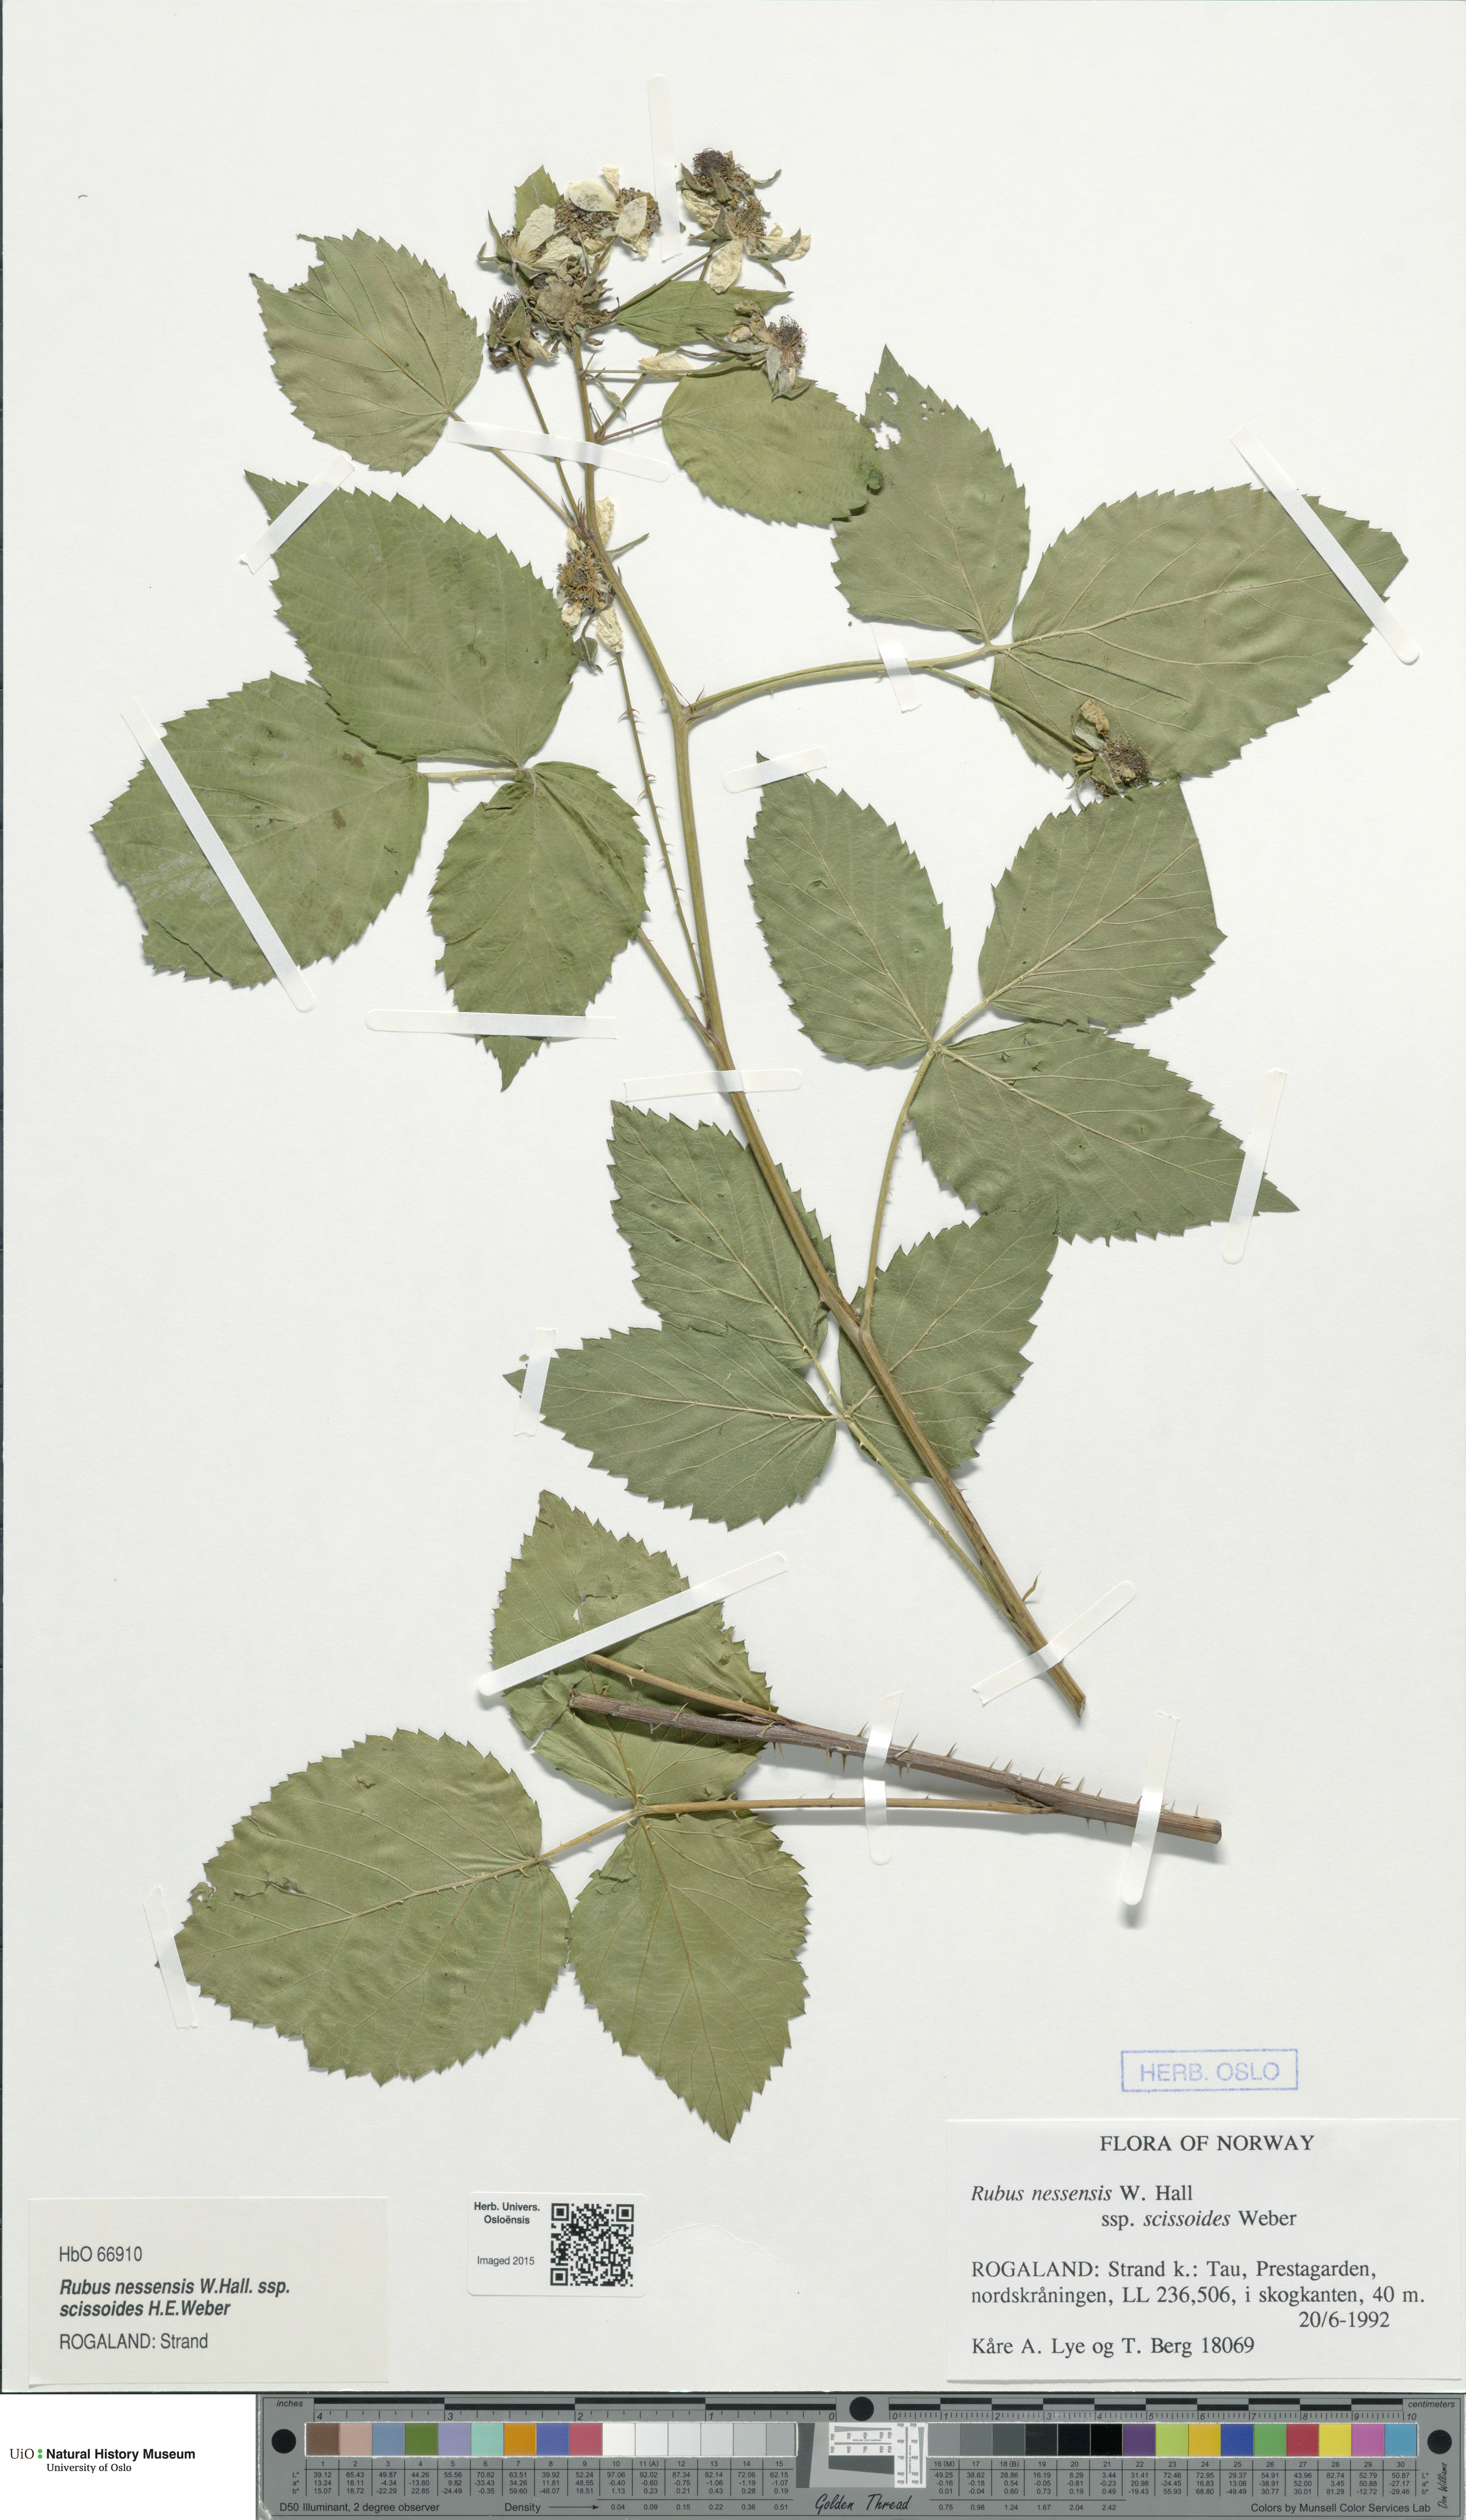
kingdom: Plantae
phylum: Tracheophyta
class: Magnoliopsida
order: Rosales
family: Rosaceae
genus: Rubus
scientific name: Rubus scissus
